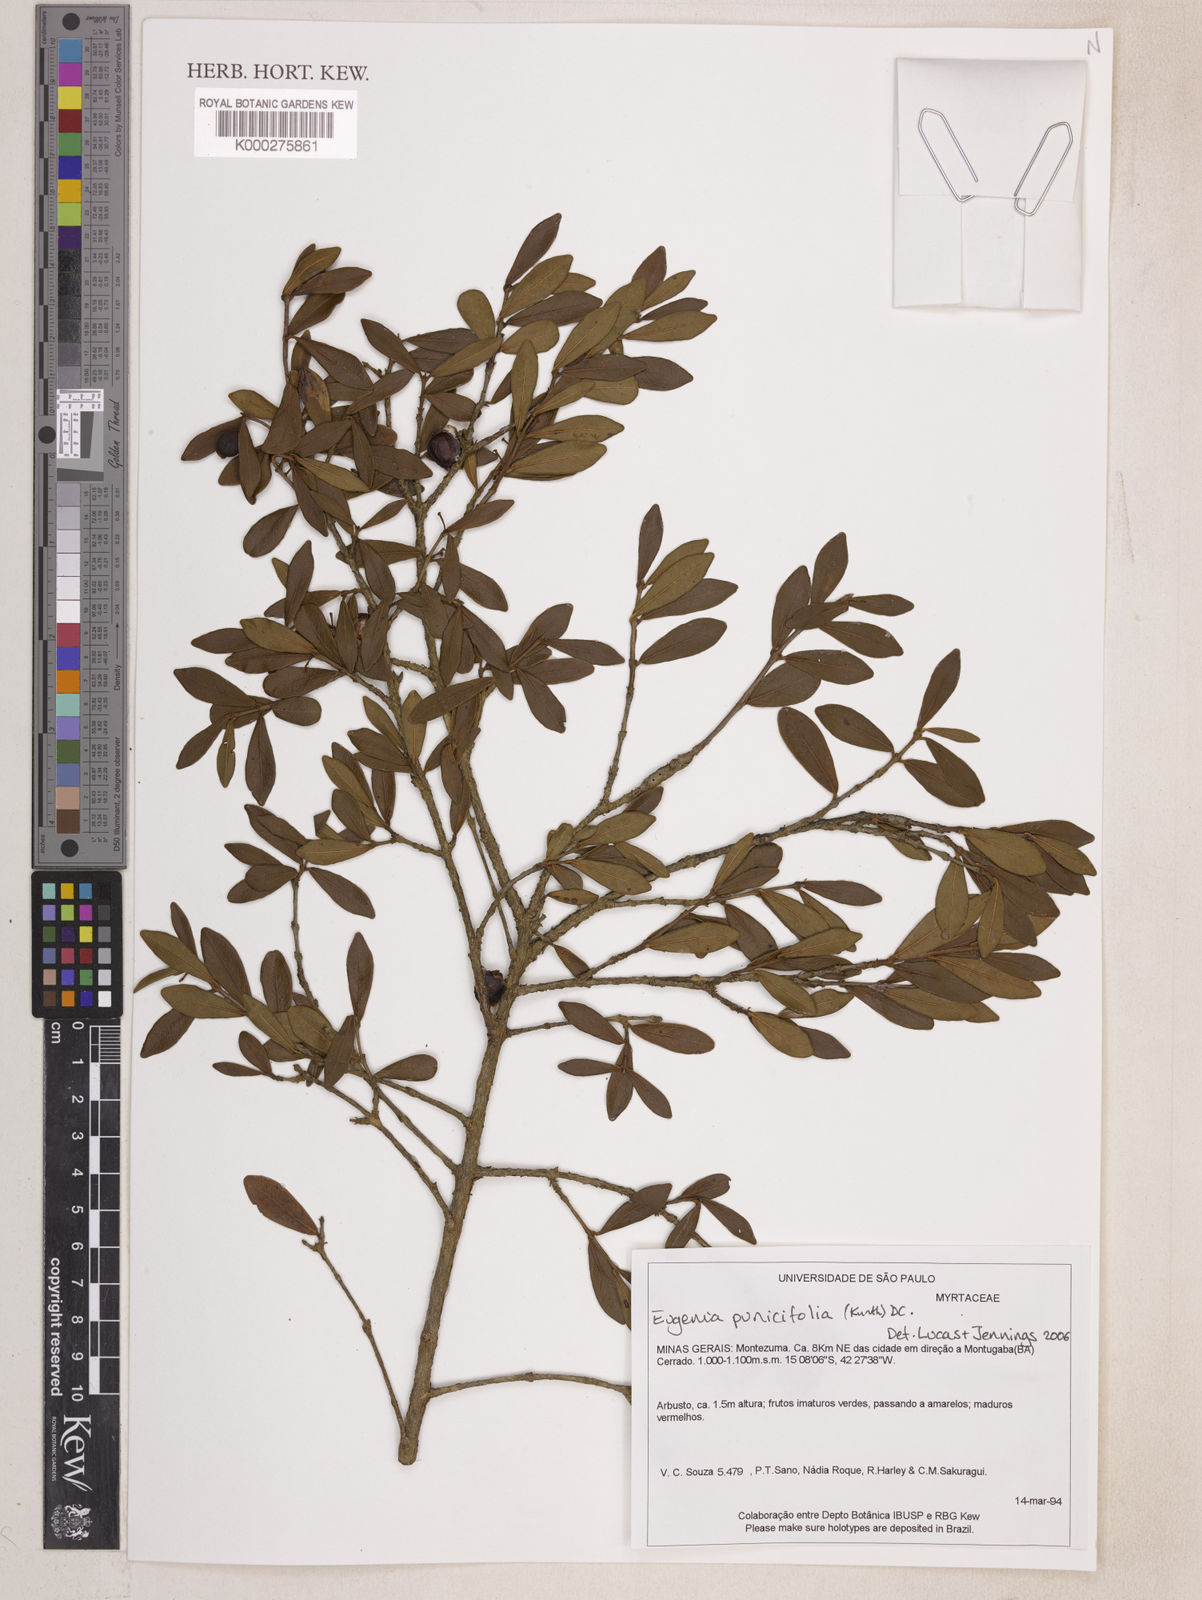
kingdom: Plantae
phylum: Tracheophyta
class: Magnoliopsida
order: Myrtales
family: Myrtaceae
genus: Eugenia
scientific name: Eugenia punicifolia
